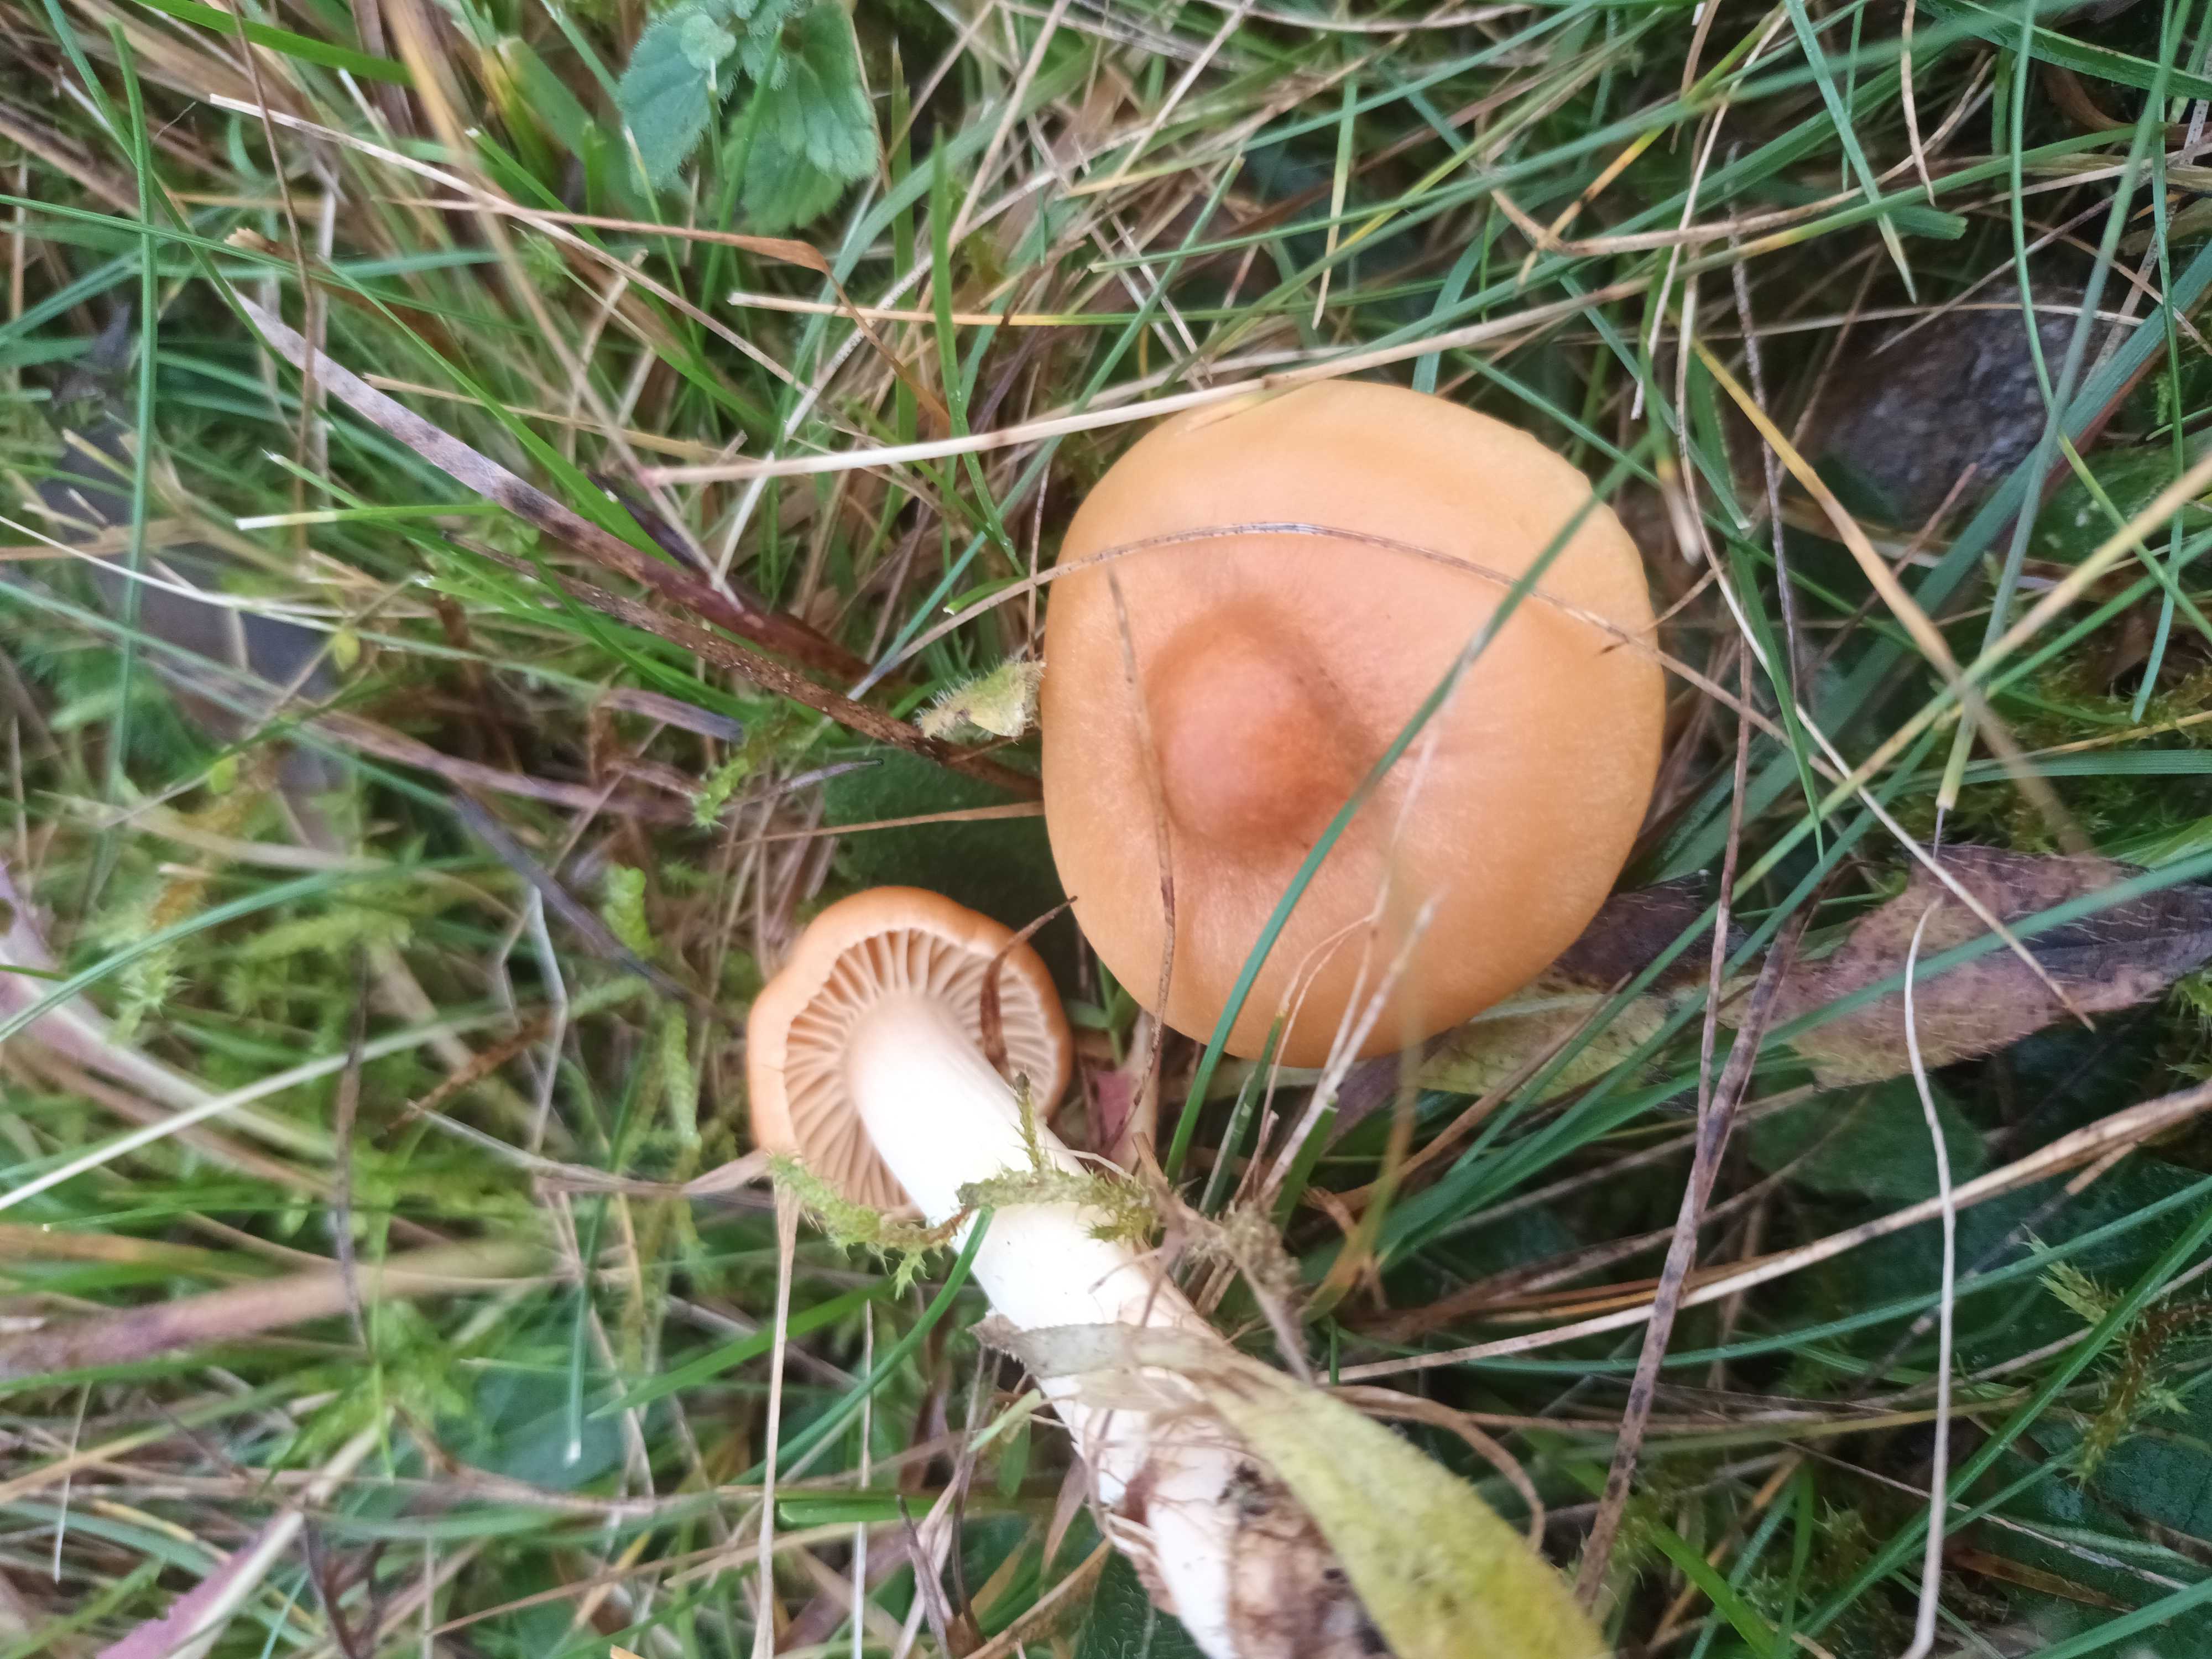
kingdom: Fungi
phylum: Basidiomycota
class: Agaricomycetes
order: Agaricales
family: Hygrophoraceae
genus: Cuphophyllus
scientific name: Cuphophyllus pratensis
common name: eng-vokshat
